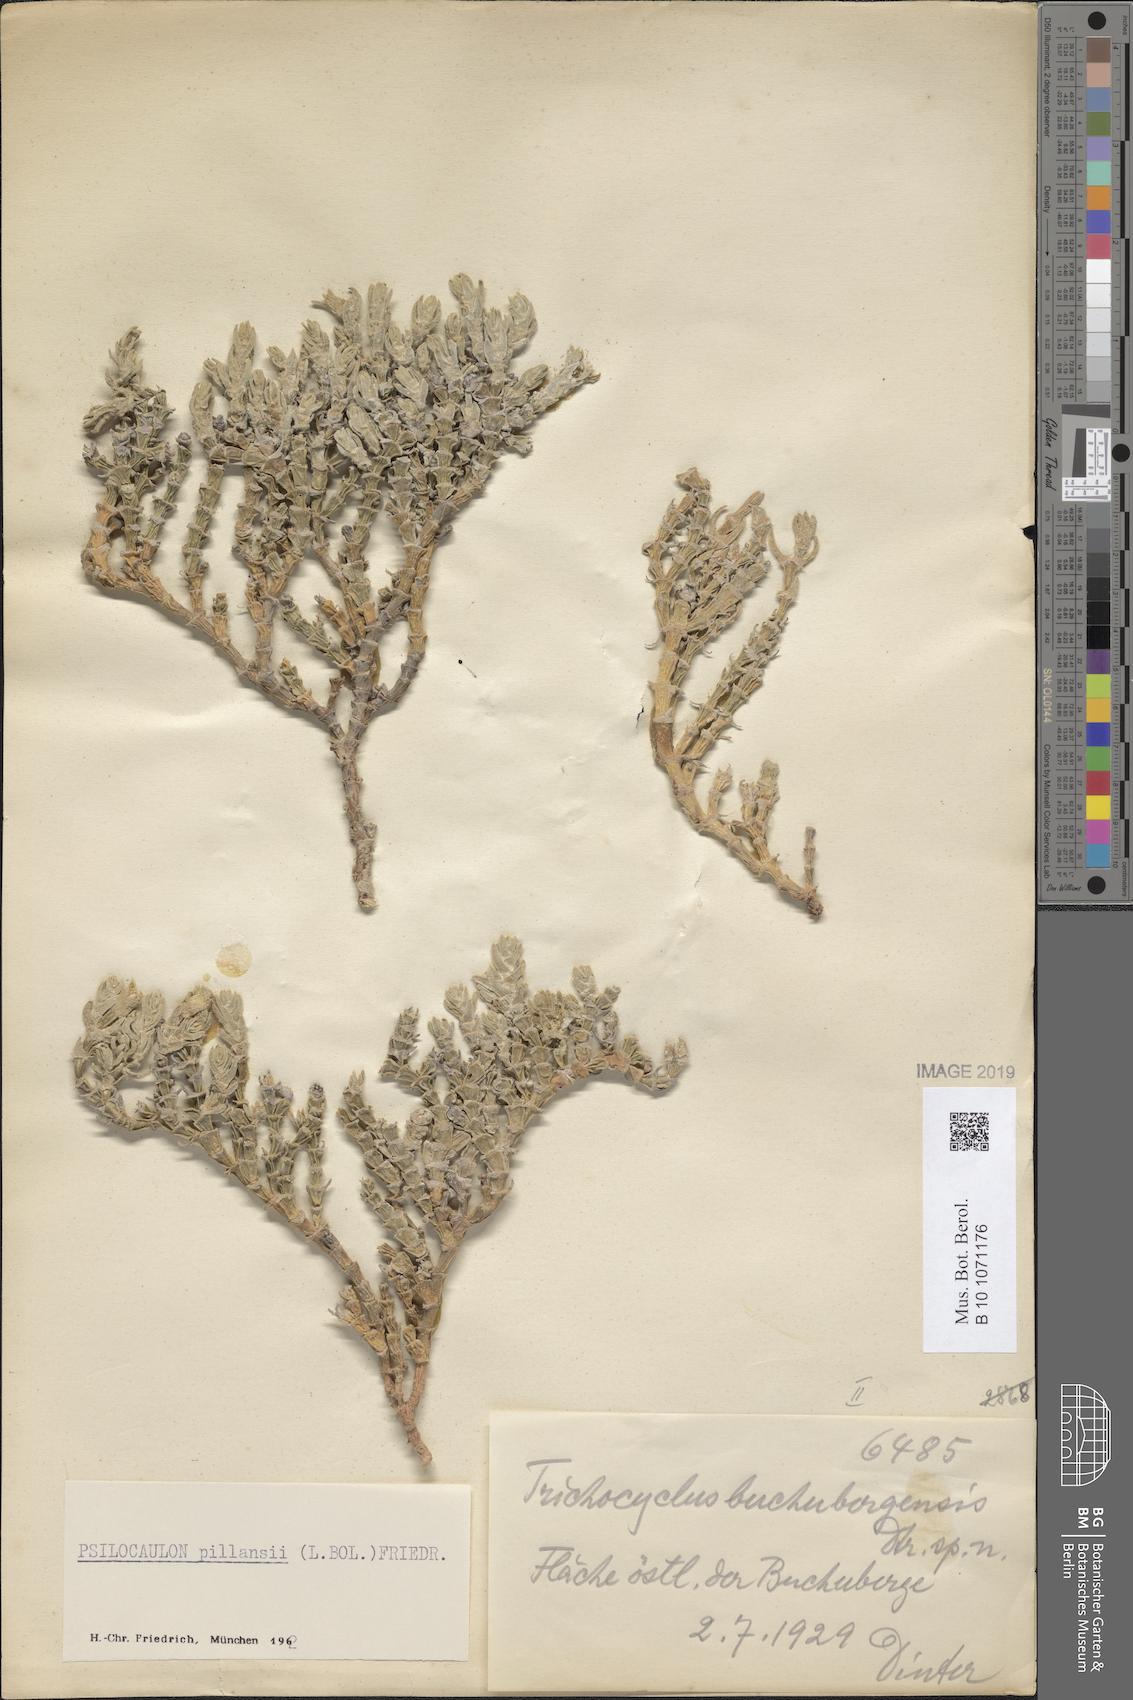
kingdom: Plantae
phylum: Tracheophyta
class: Magnoliopsida
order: Caryophyllales
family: Aizoaceae
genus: Mesembryanthemum
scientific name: Mesembryanthemum tomentosum
